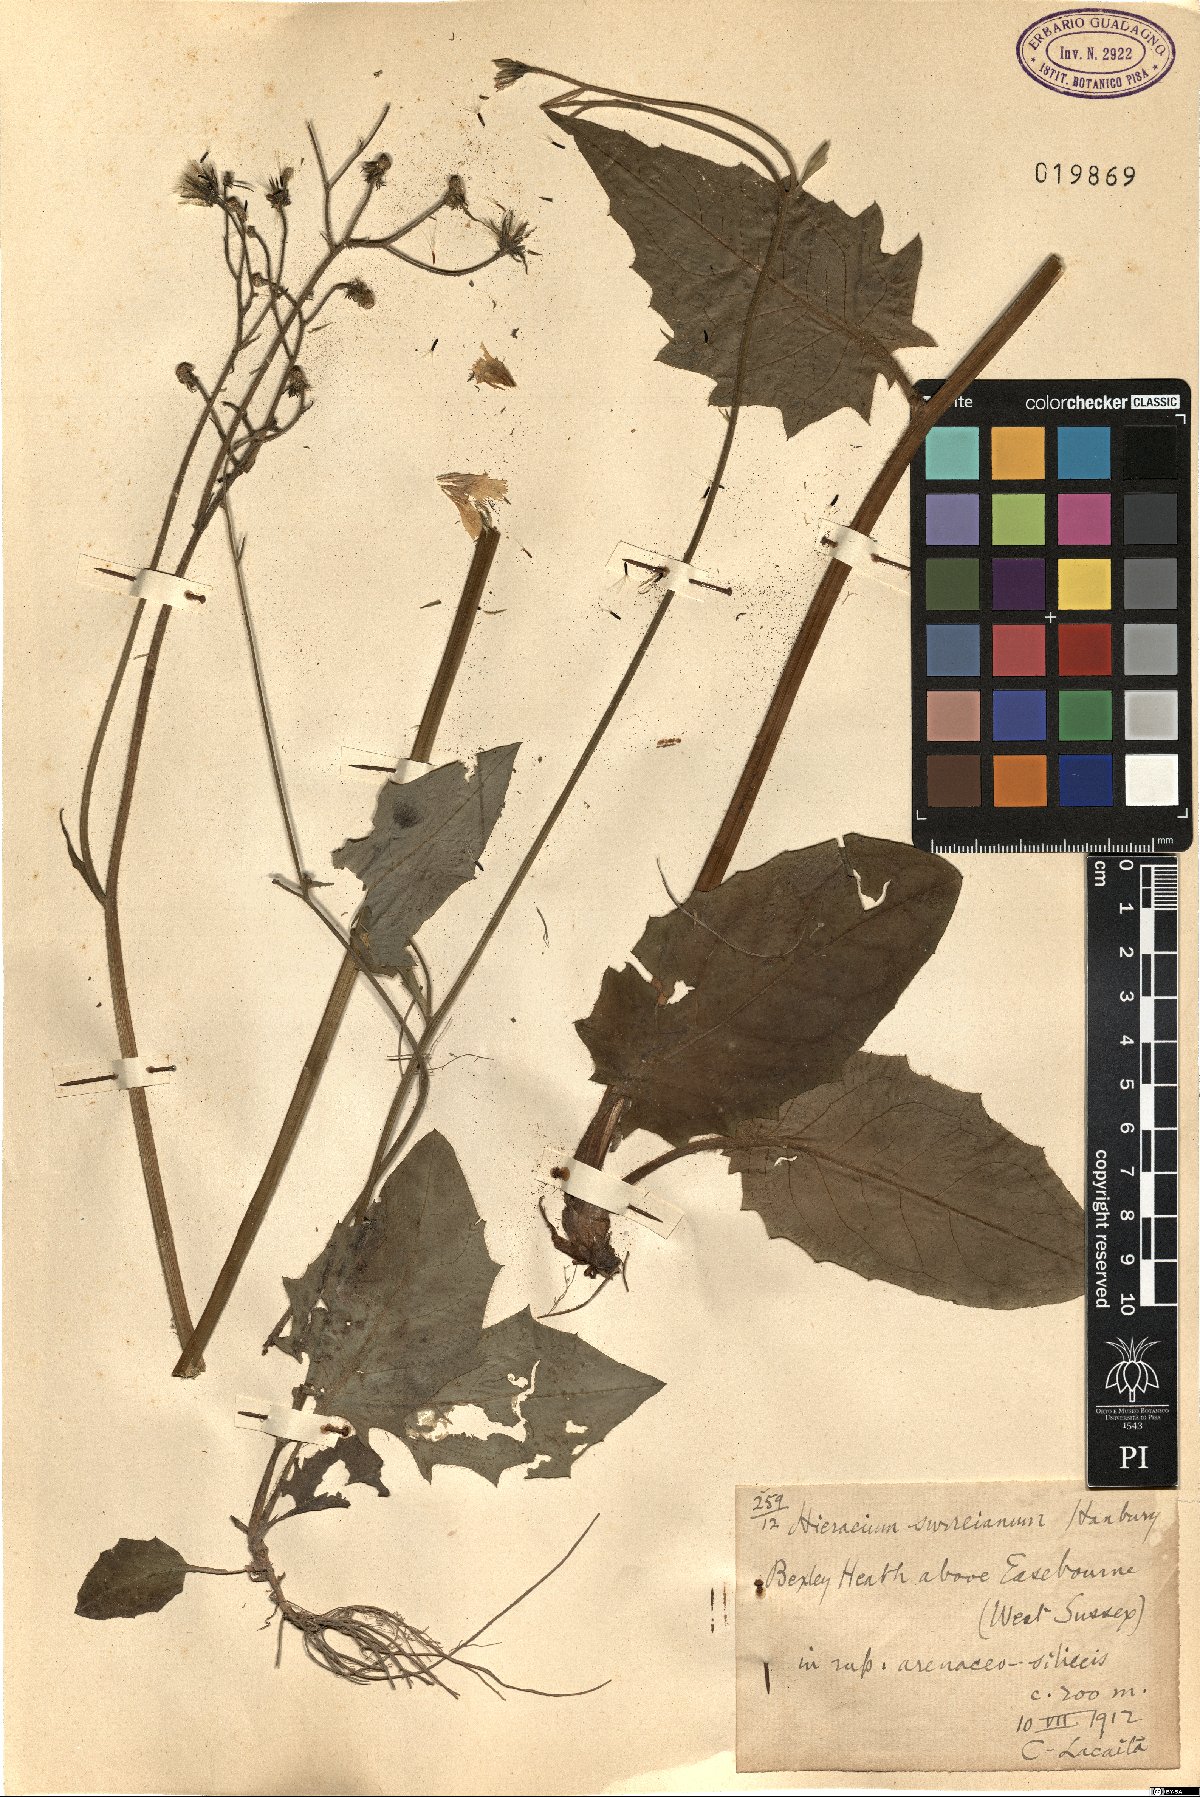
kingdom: Plantae
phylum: Tracheophyta
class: Magnoliopsida
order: Asterales
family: Asteraceae
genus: Hieracium
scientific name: Hieracium surrejanum
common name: Surrey hawkweed
